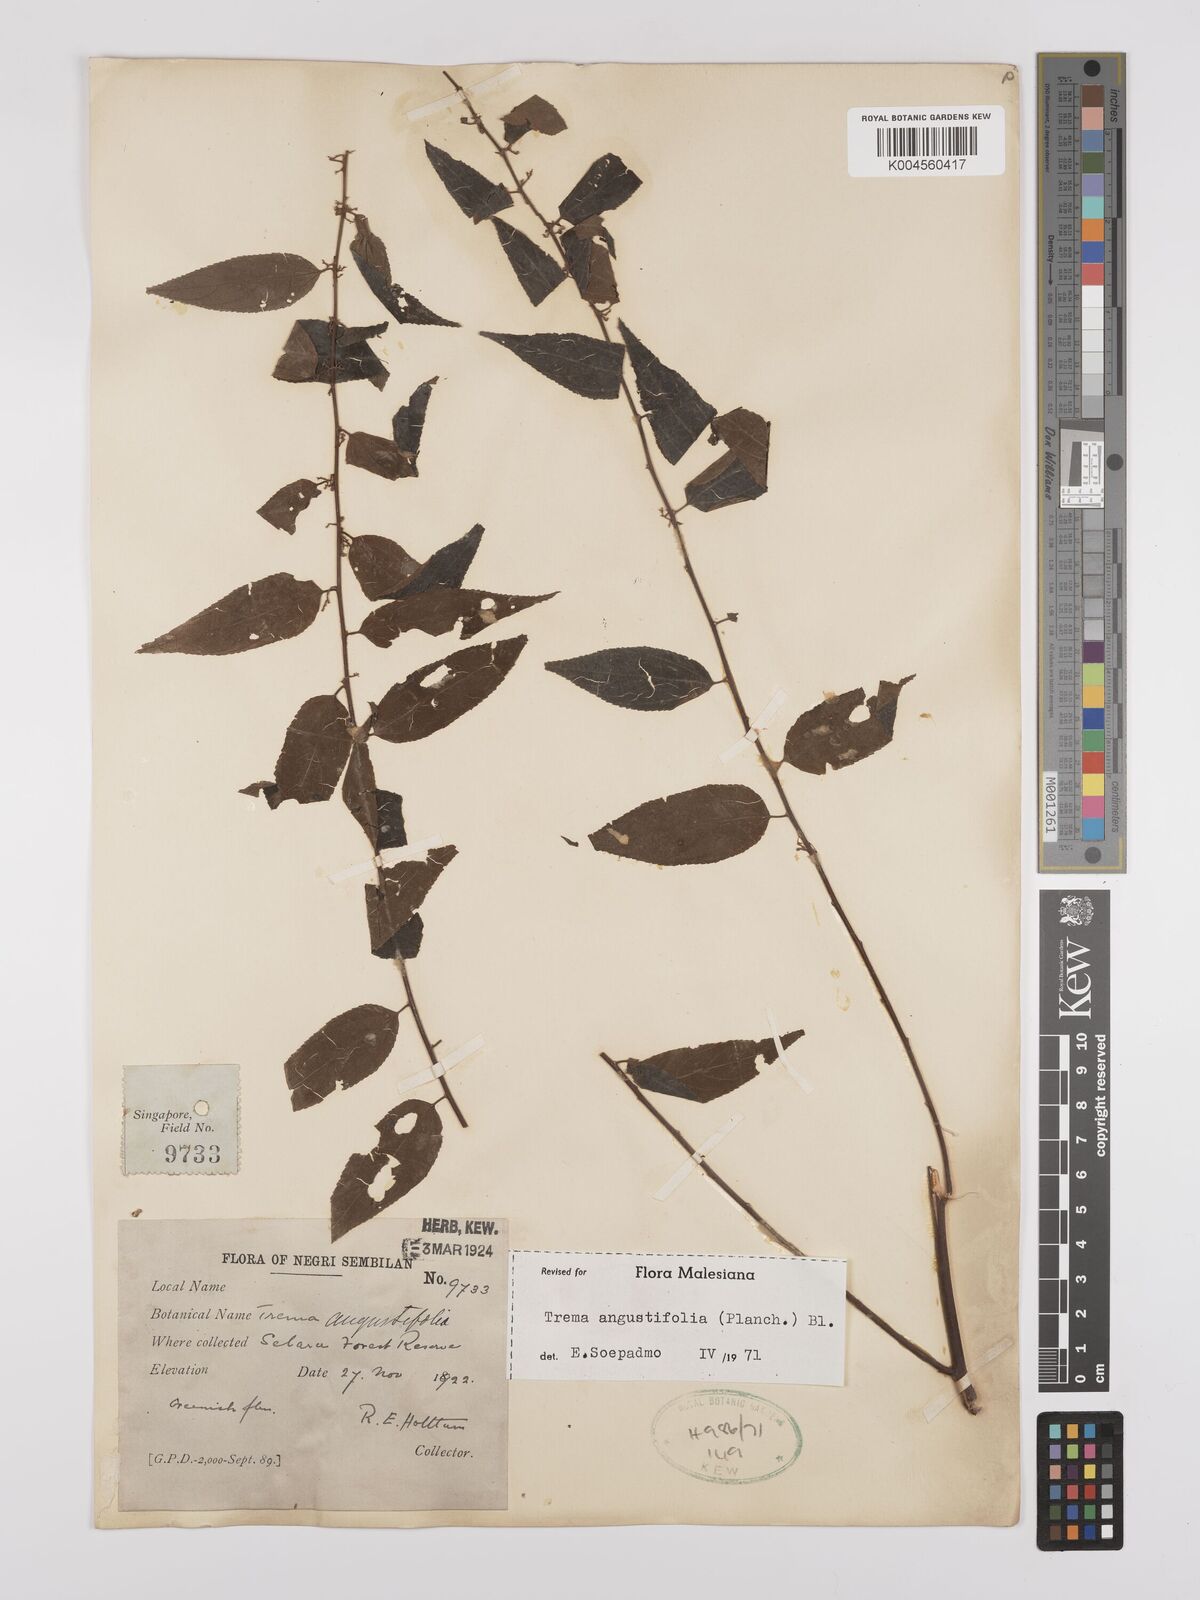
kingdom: Plantae
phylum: Tracheophyta
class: Magnoliopsida
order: Rosales
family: Cannabaceae
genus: Trema
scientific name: Trema angustifolium
